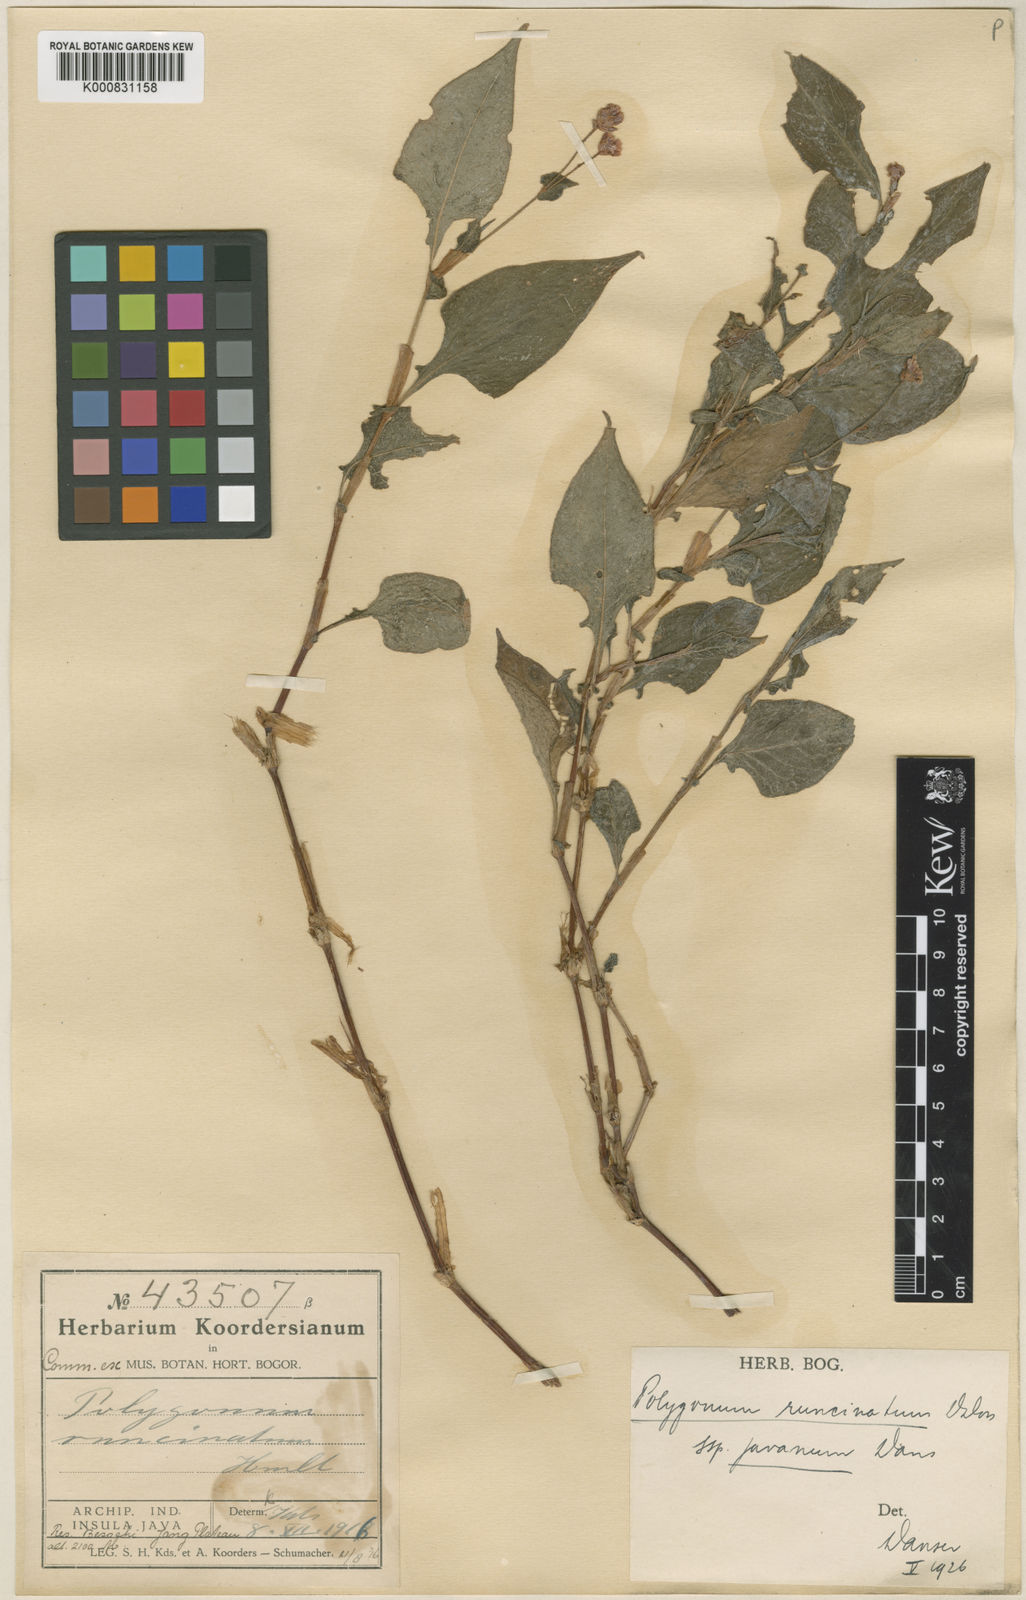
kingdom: Plantae
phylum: Tracheophyta
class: Magnoliopsida
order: Caryophyllales
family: Polygonaceae
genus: Persicaria
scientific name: Persicaria runcinata
